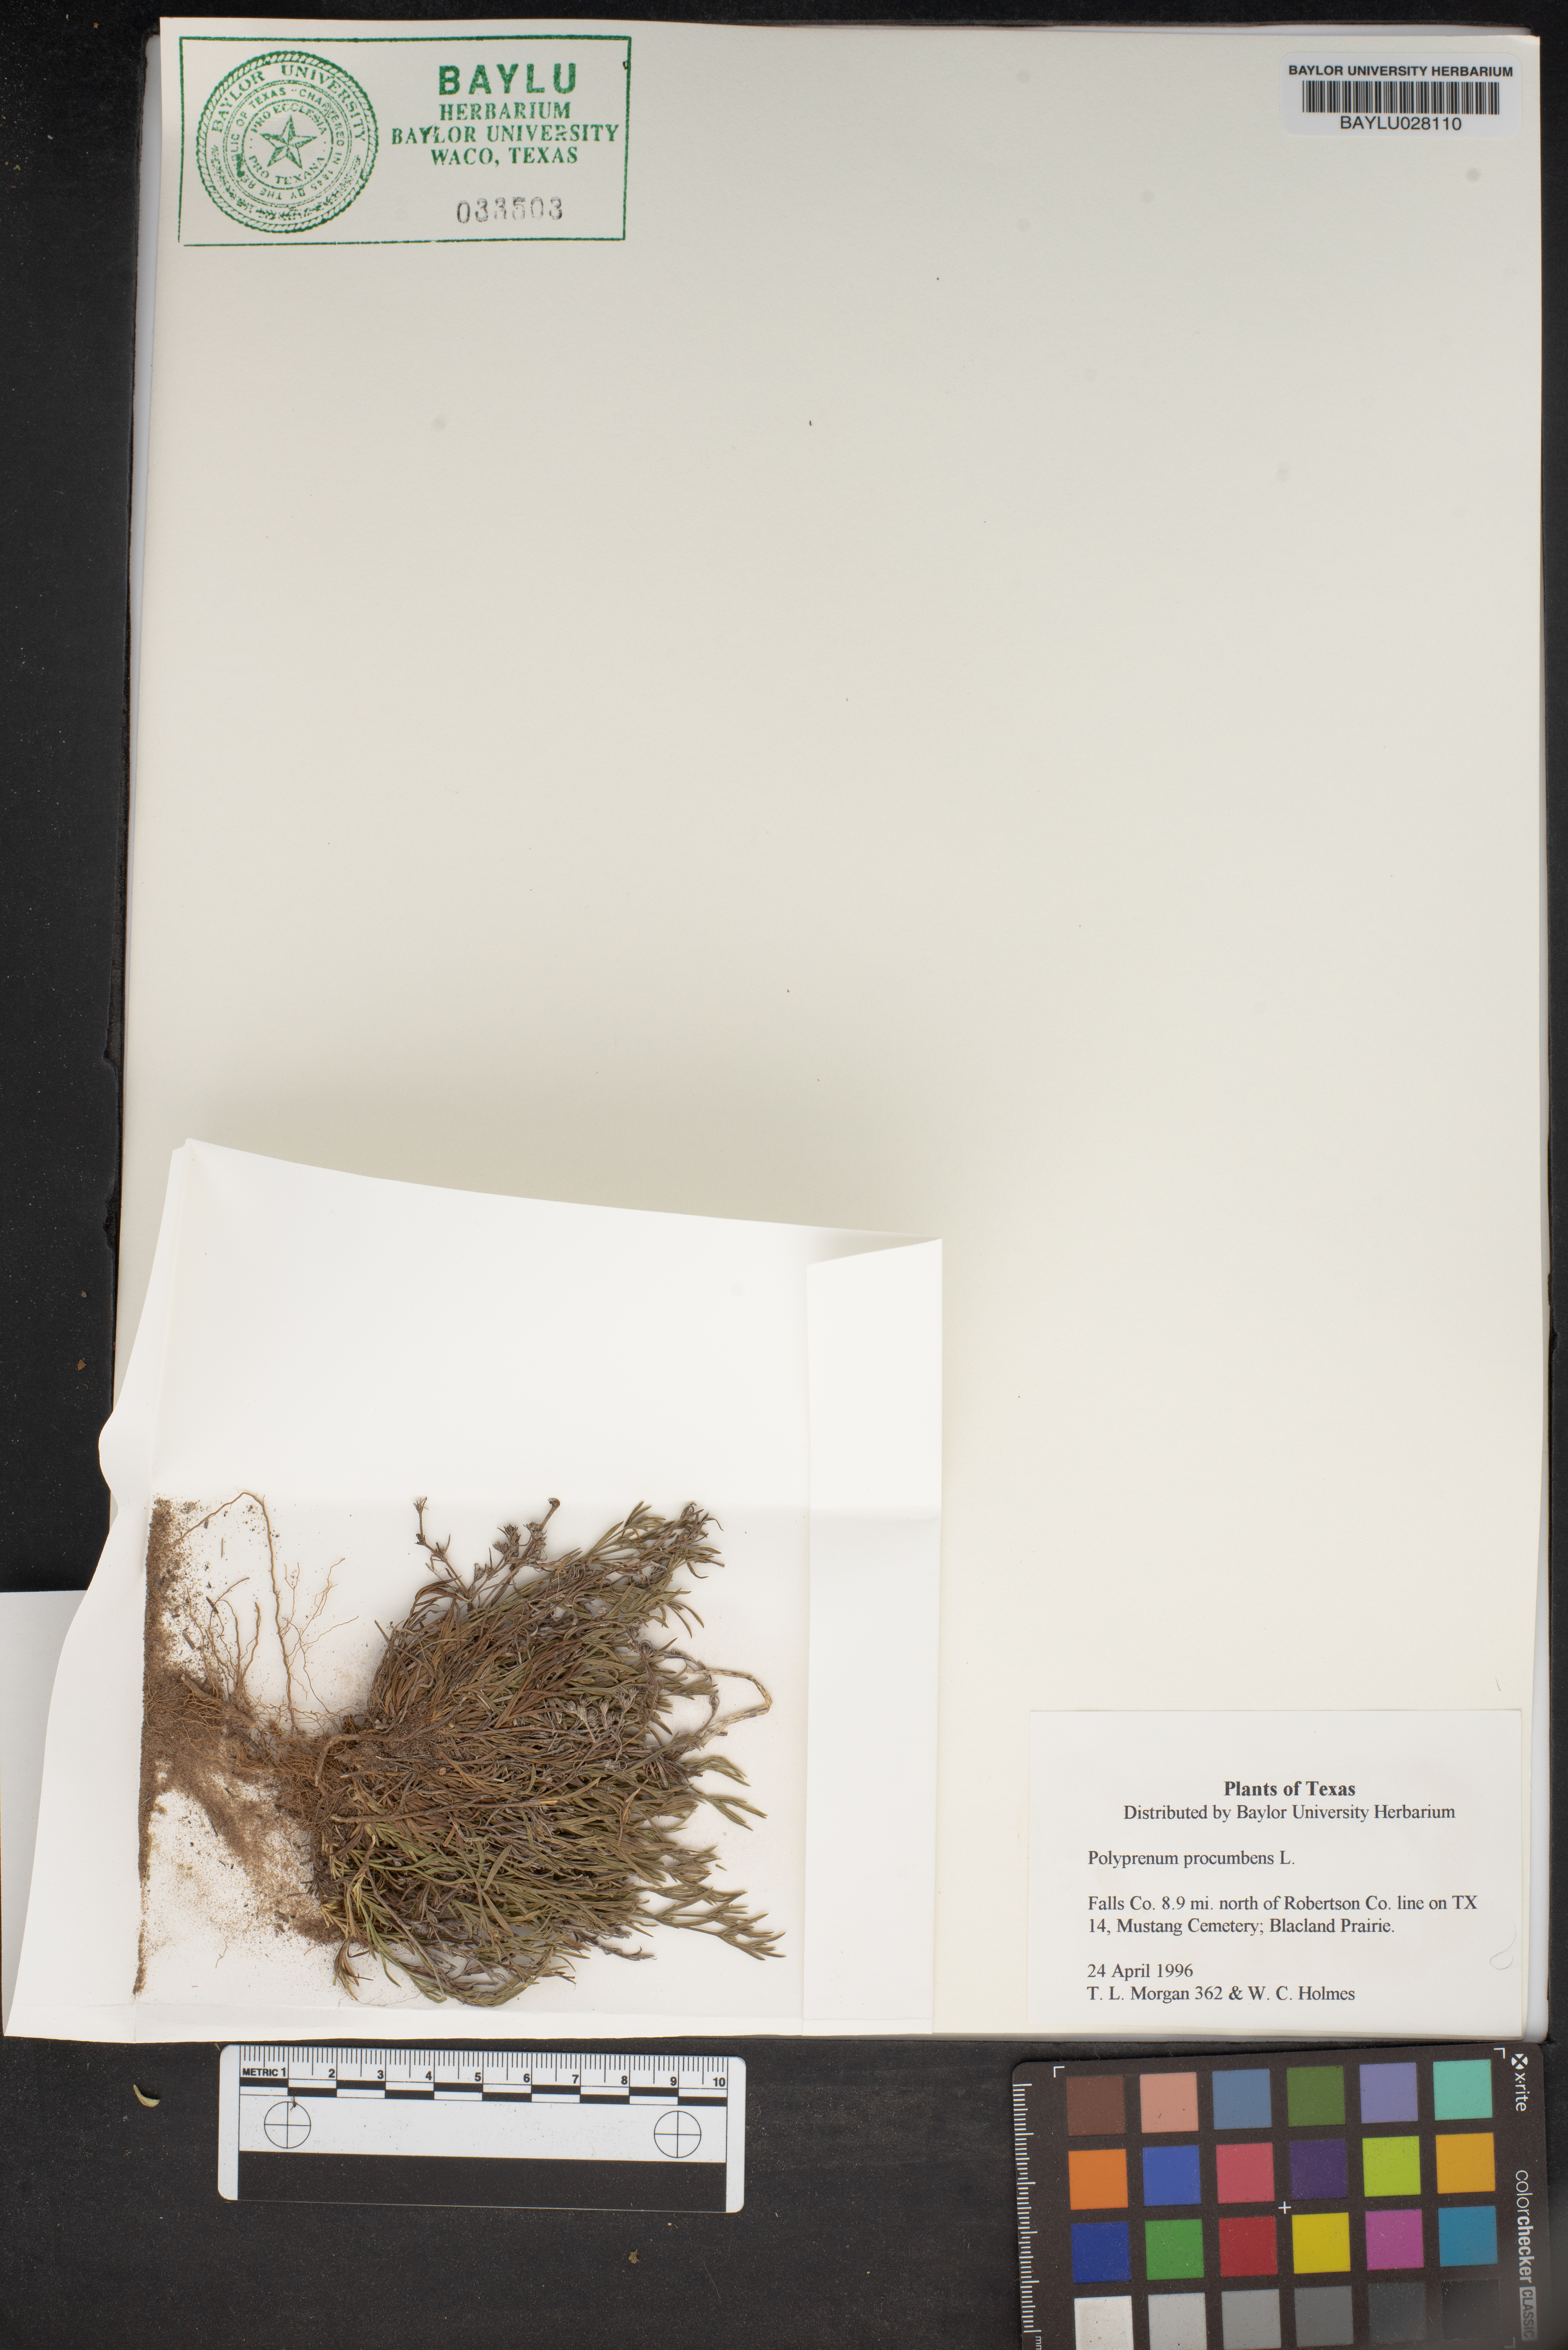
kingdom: Plantae
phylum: Tracheophyta
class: Magnoliopsida
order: Lamiales
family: Tetrachondraceae
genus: Polypremum
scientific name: Polypremum procumbens
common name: Juniper-leaf
